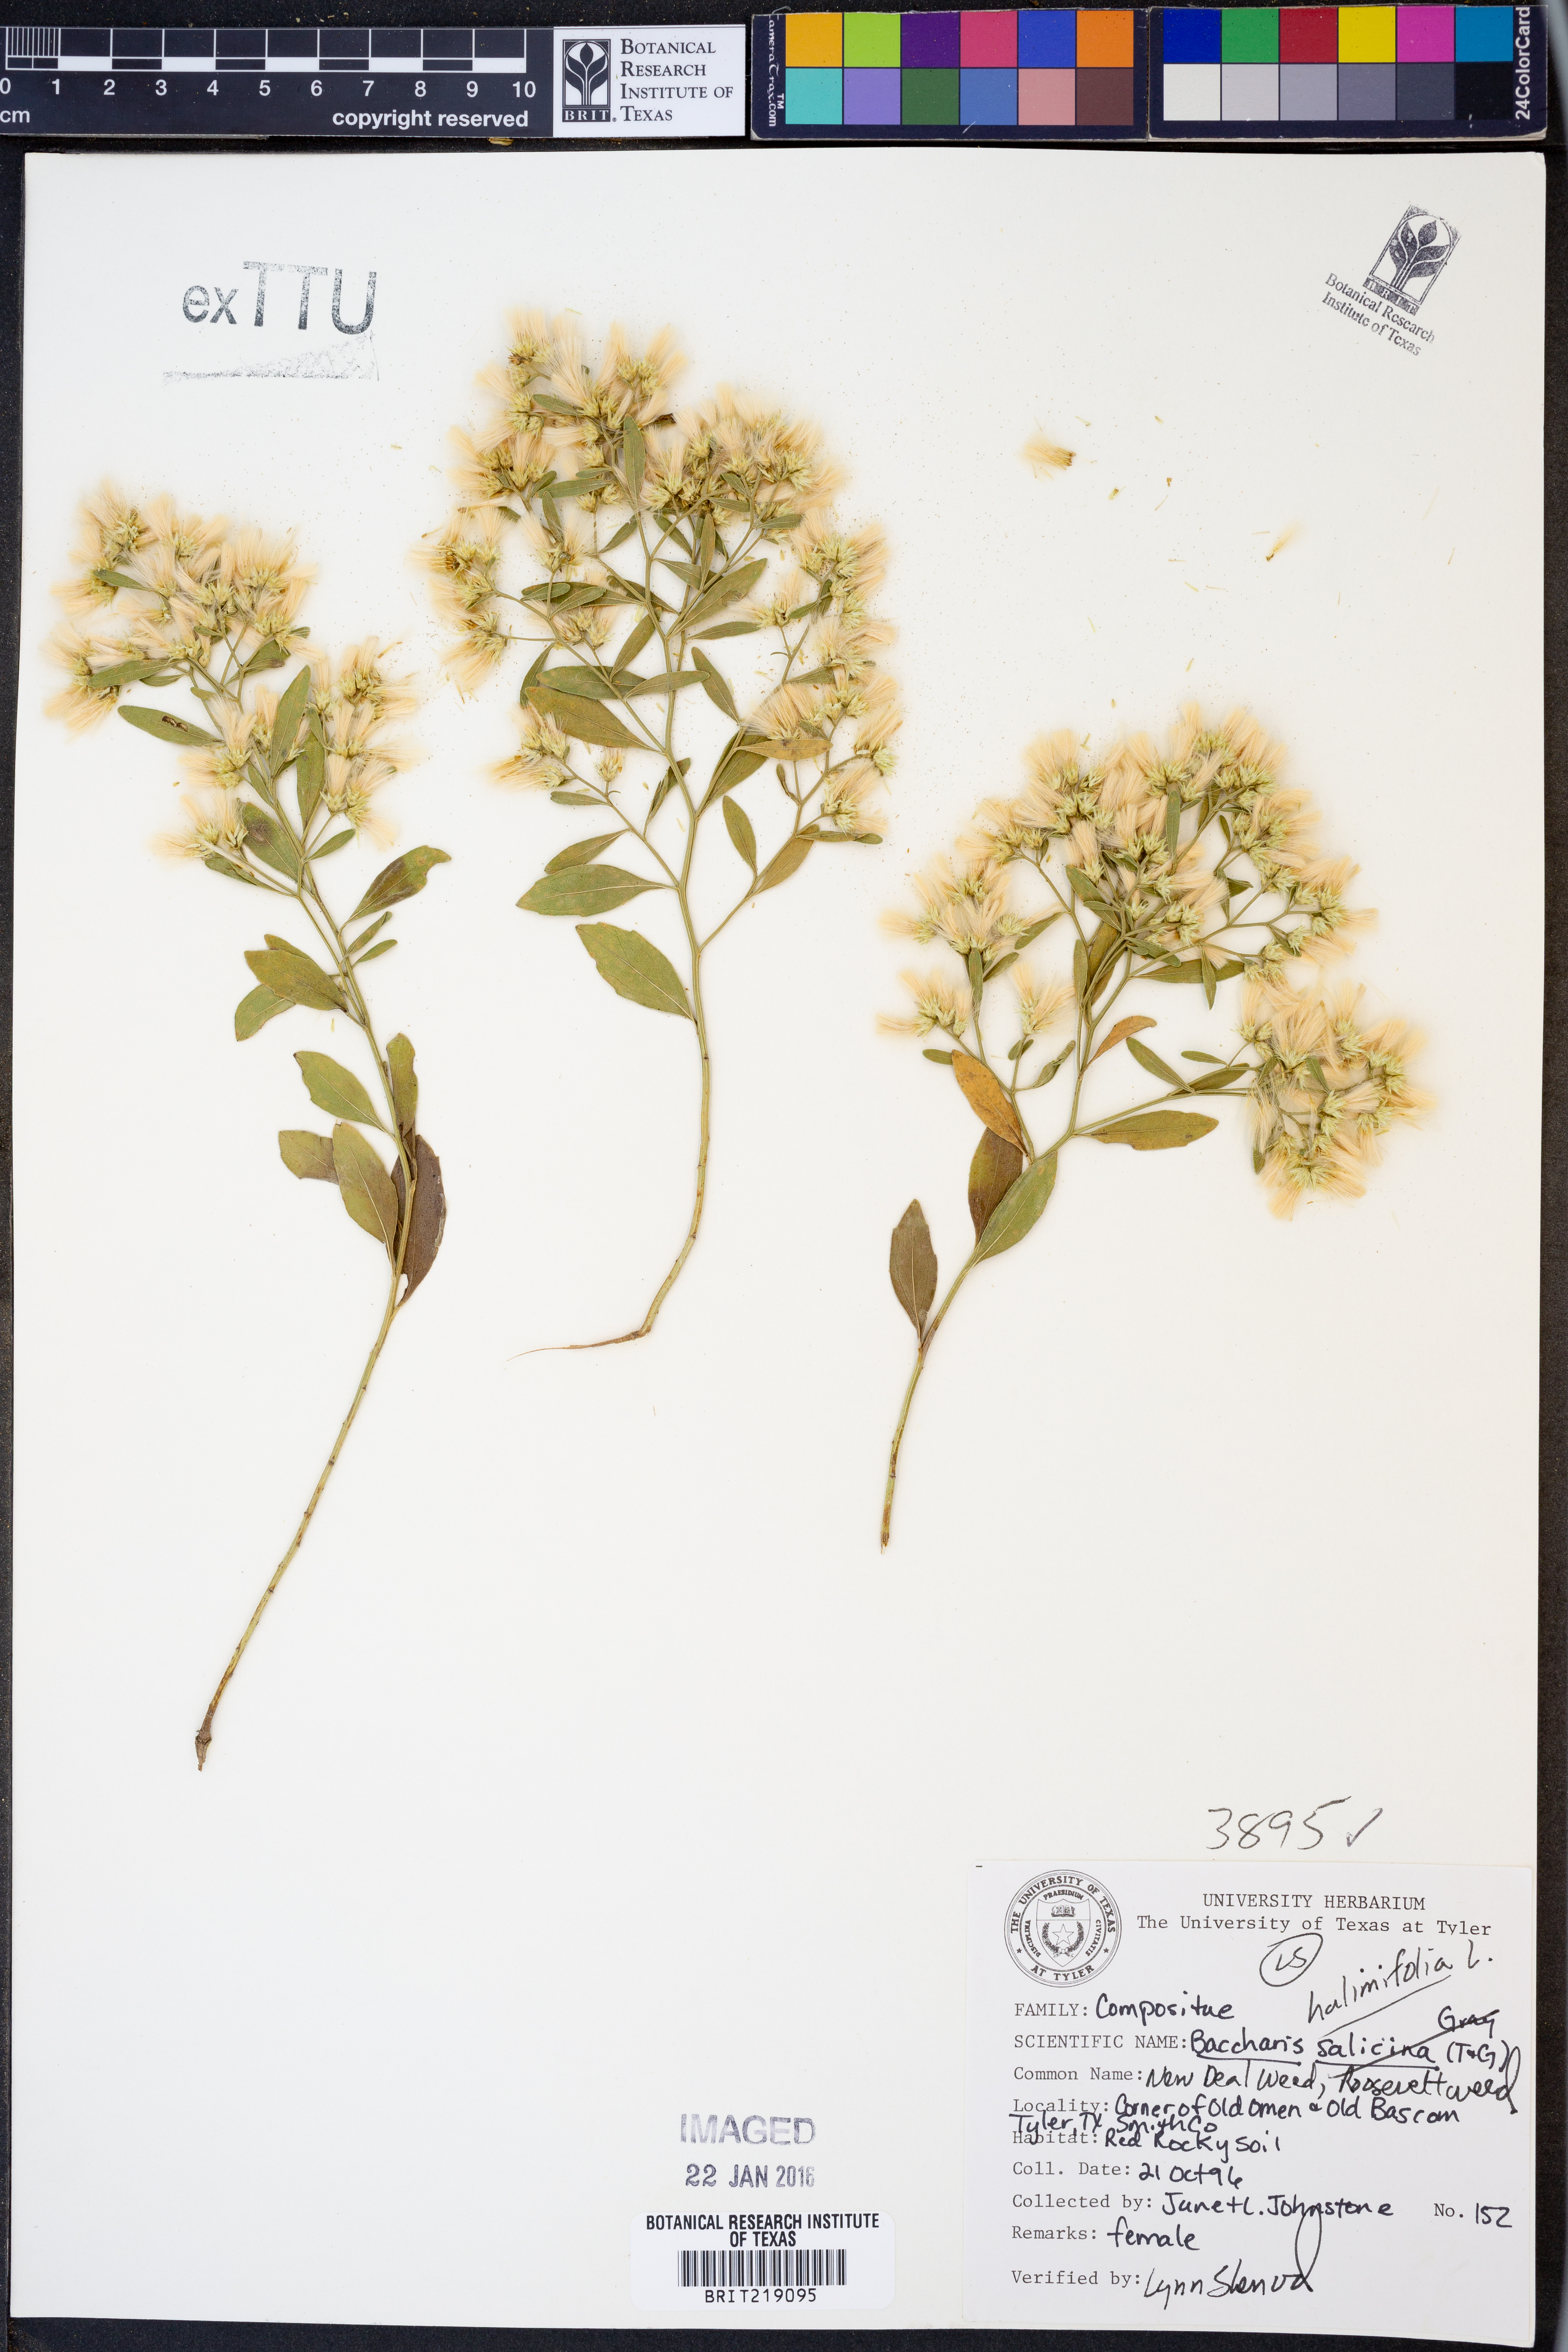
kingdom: Plantae
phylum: Tracheophyta
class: Magnoliopsida
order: Asterales
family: Asteraceae
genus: Nidorella
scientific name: Nidorella ivifolia
